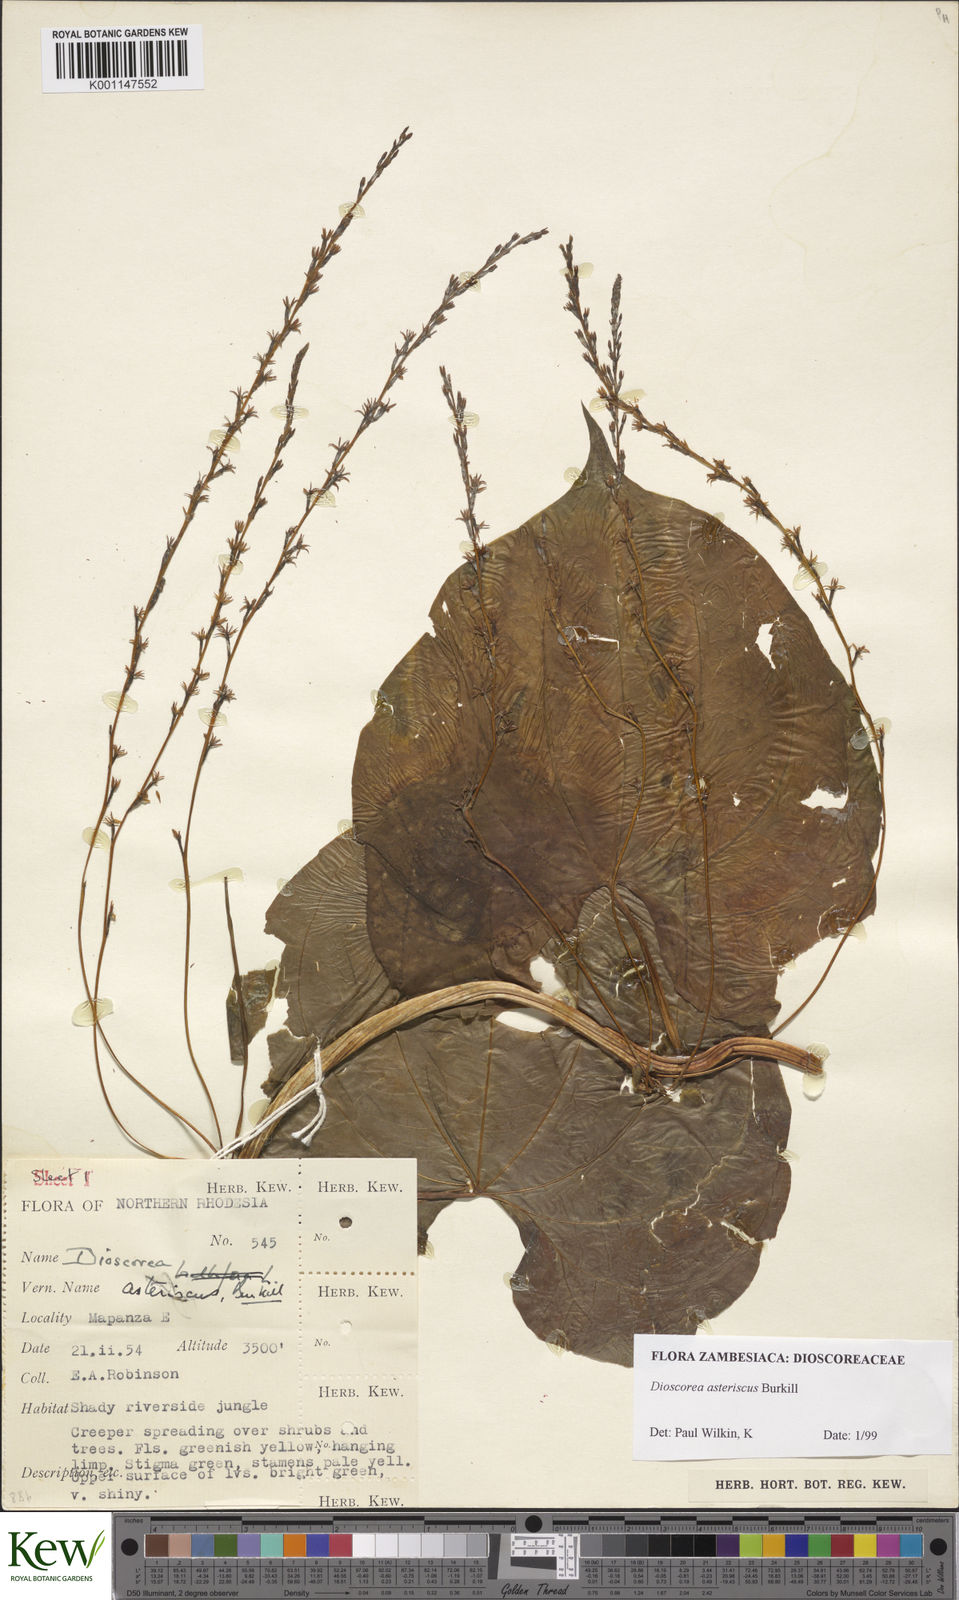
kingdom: Plantae
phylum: Tracheophyta
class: Liliopsida
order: Dioscoreales
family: Dioscoreaceae
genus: Dioscorea
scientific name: Dioscorea asteriscus
